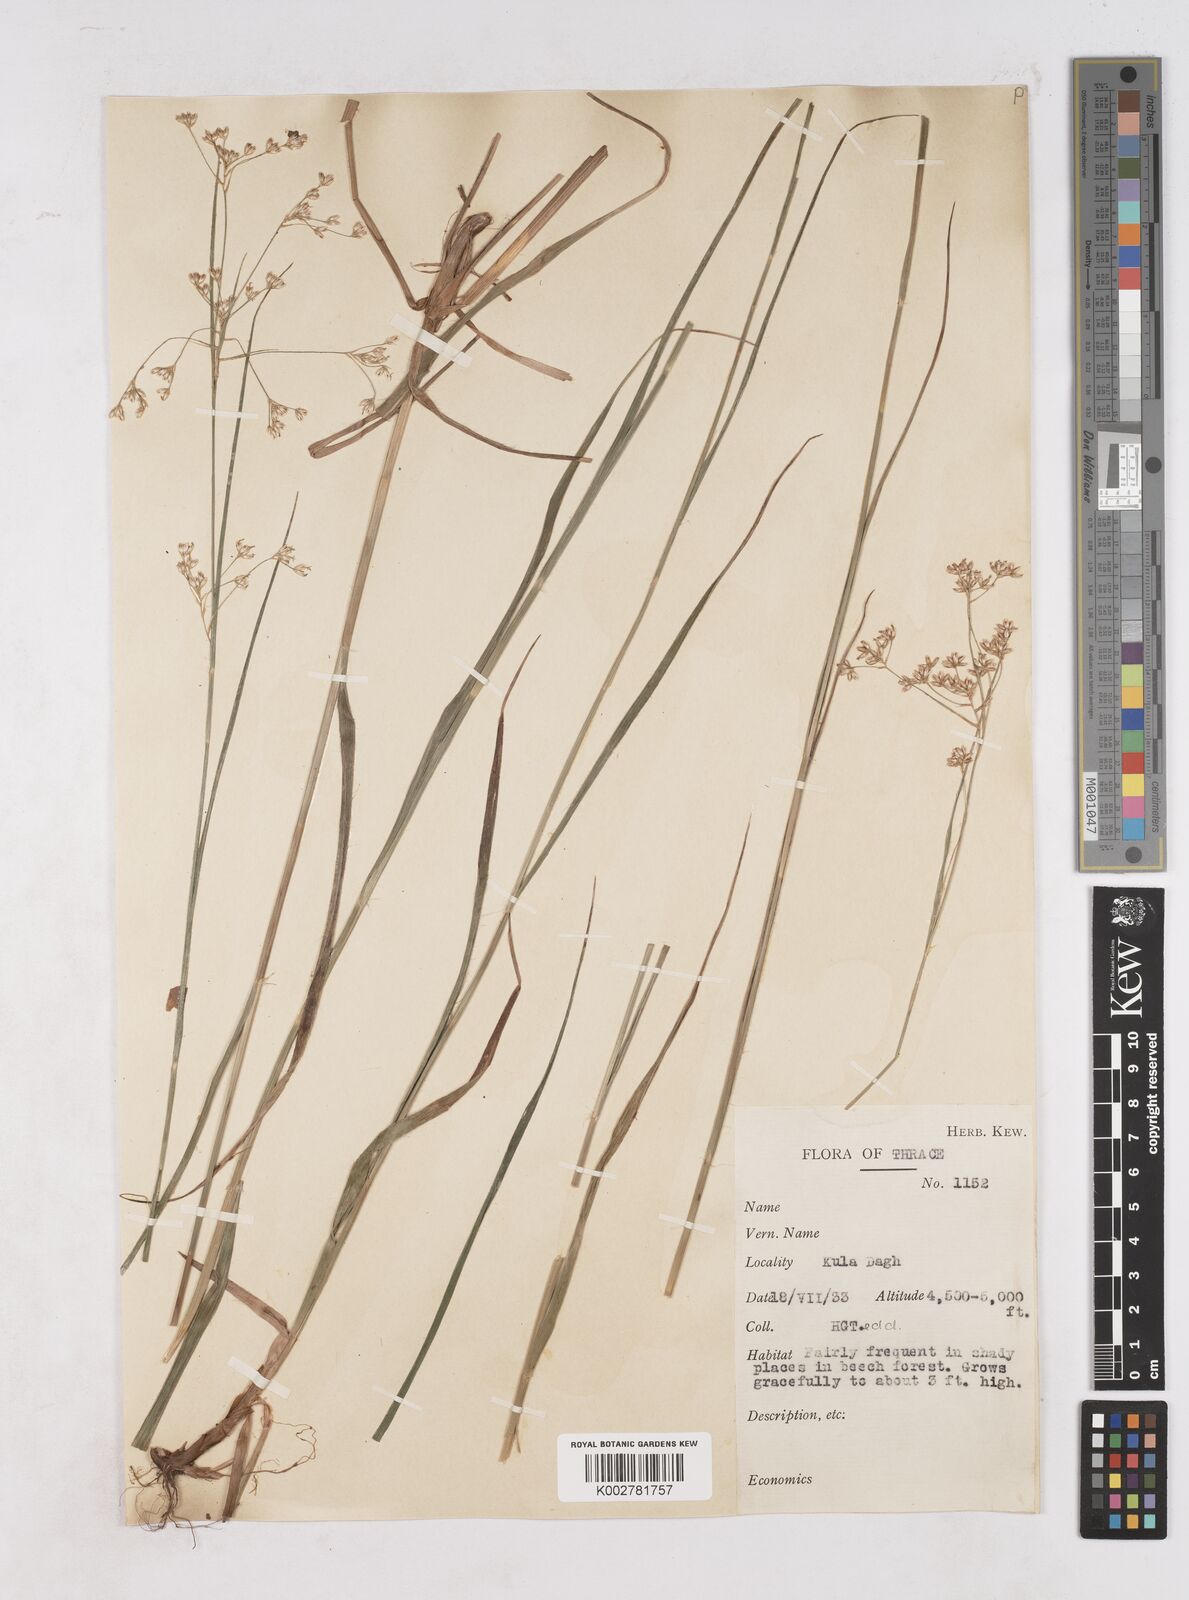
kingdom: Plantae
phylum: Tracheophyta
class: Liliopsida
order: Poales
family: Juncaceae
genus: Luzula
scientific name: Luzula luzuloides
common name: White wood-rush
